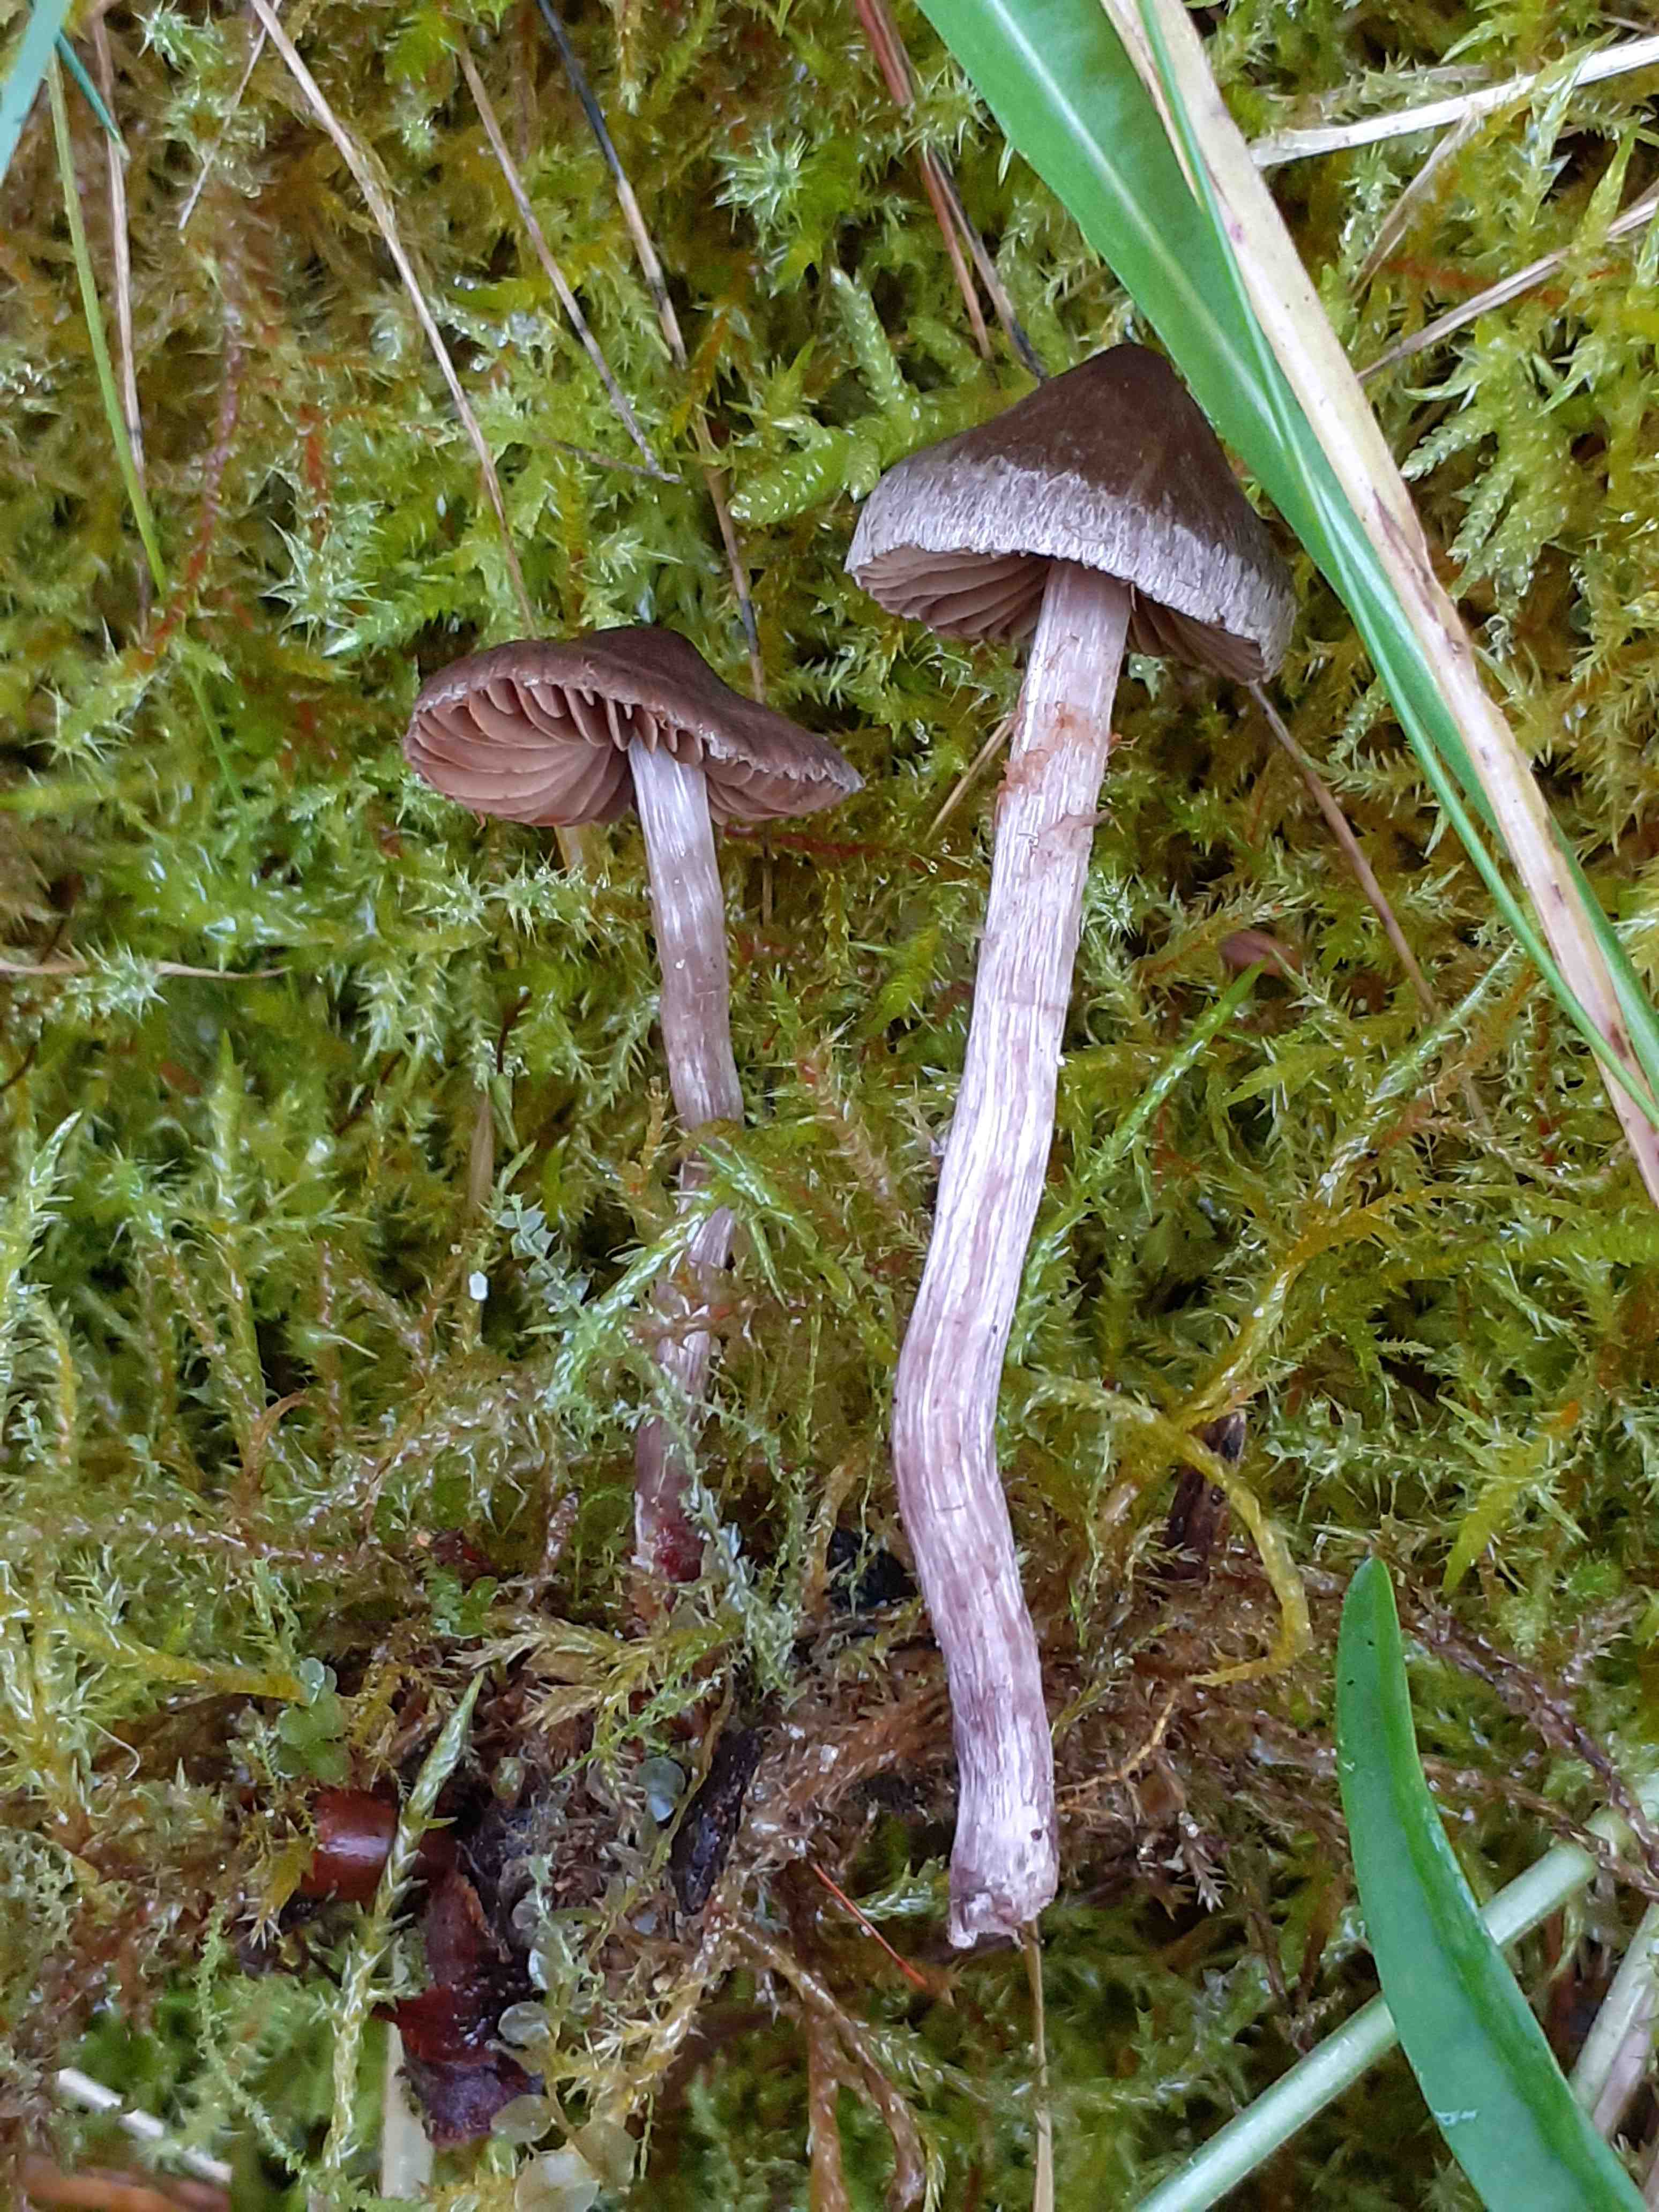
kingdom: Fungi
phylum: Basidiomycota
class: Agaricomycetes
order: Agaricales
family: Cortinariaceae
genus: Cortinarius
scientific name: Cortinarius decipiens
